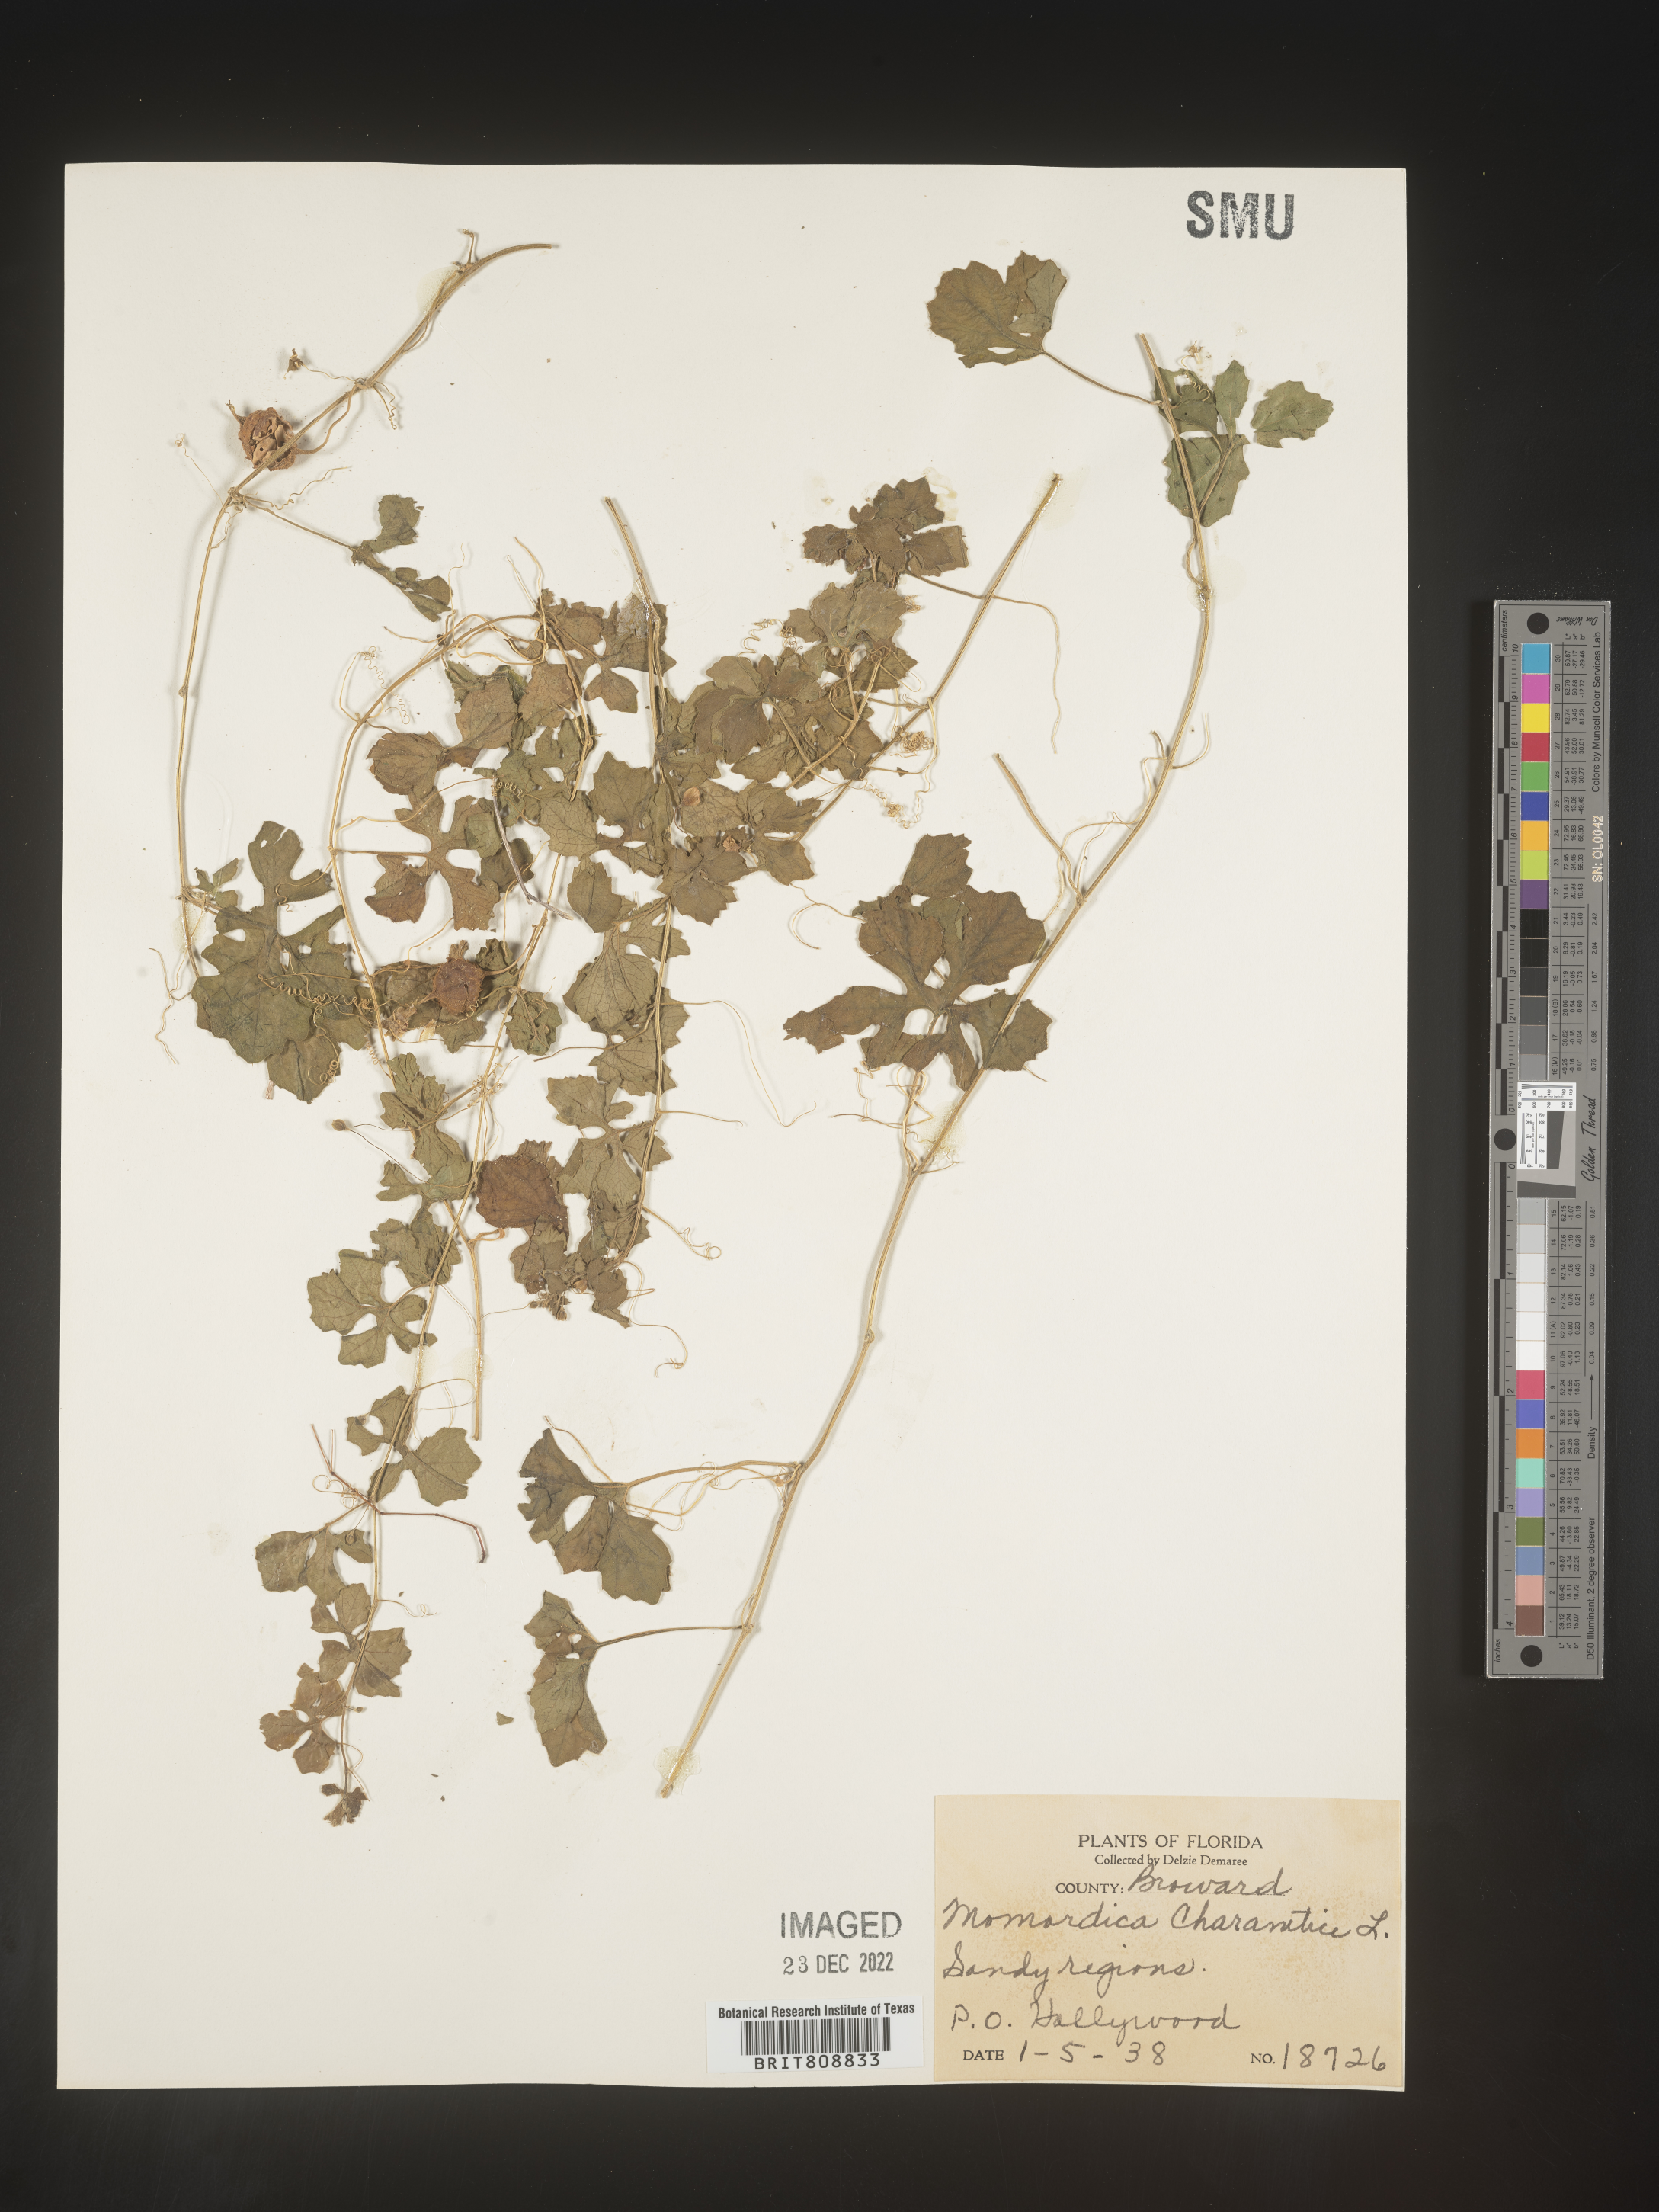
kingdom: Plantae
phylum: Tracheophyta
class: Magnoliopsida
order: Cucurbitales
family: Cucurbitaceae
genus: Momordica
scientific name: Momordica
